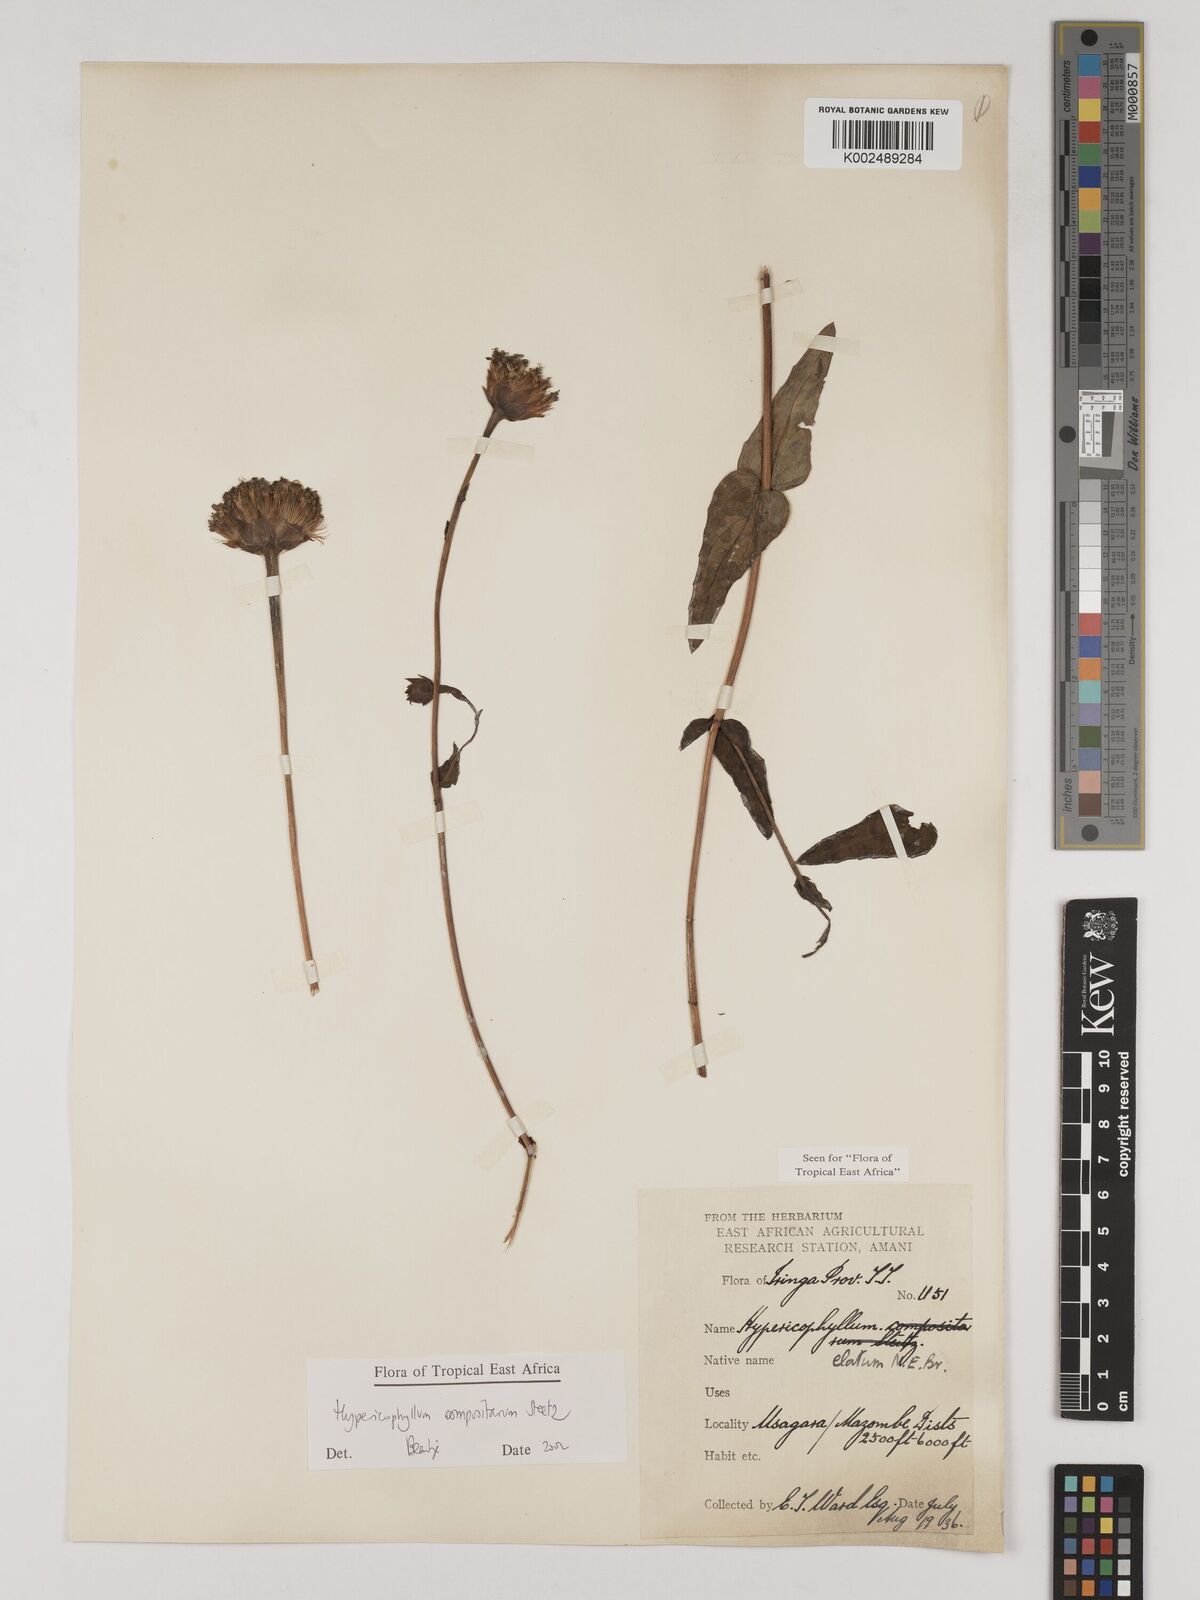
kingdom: Plantae
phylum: Tracheophyta
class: Magnoliopsida
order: Asterales
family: Asteraceae
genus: Hypericophyllum
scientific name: Hypericophyllum compositarum
